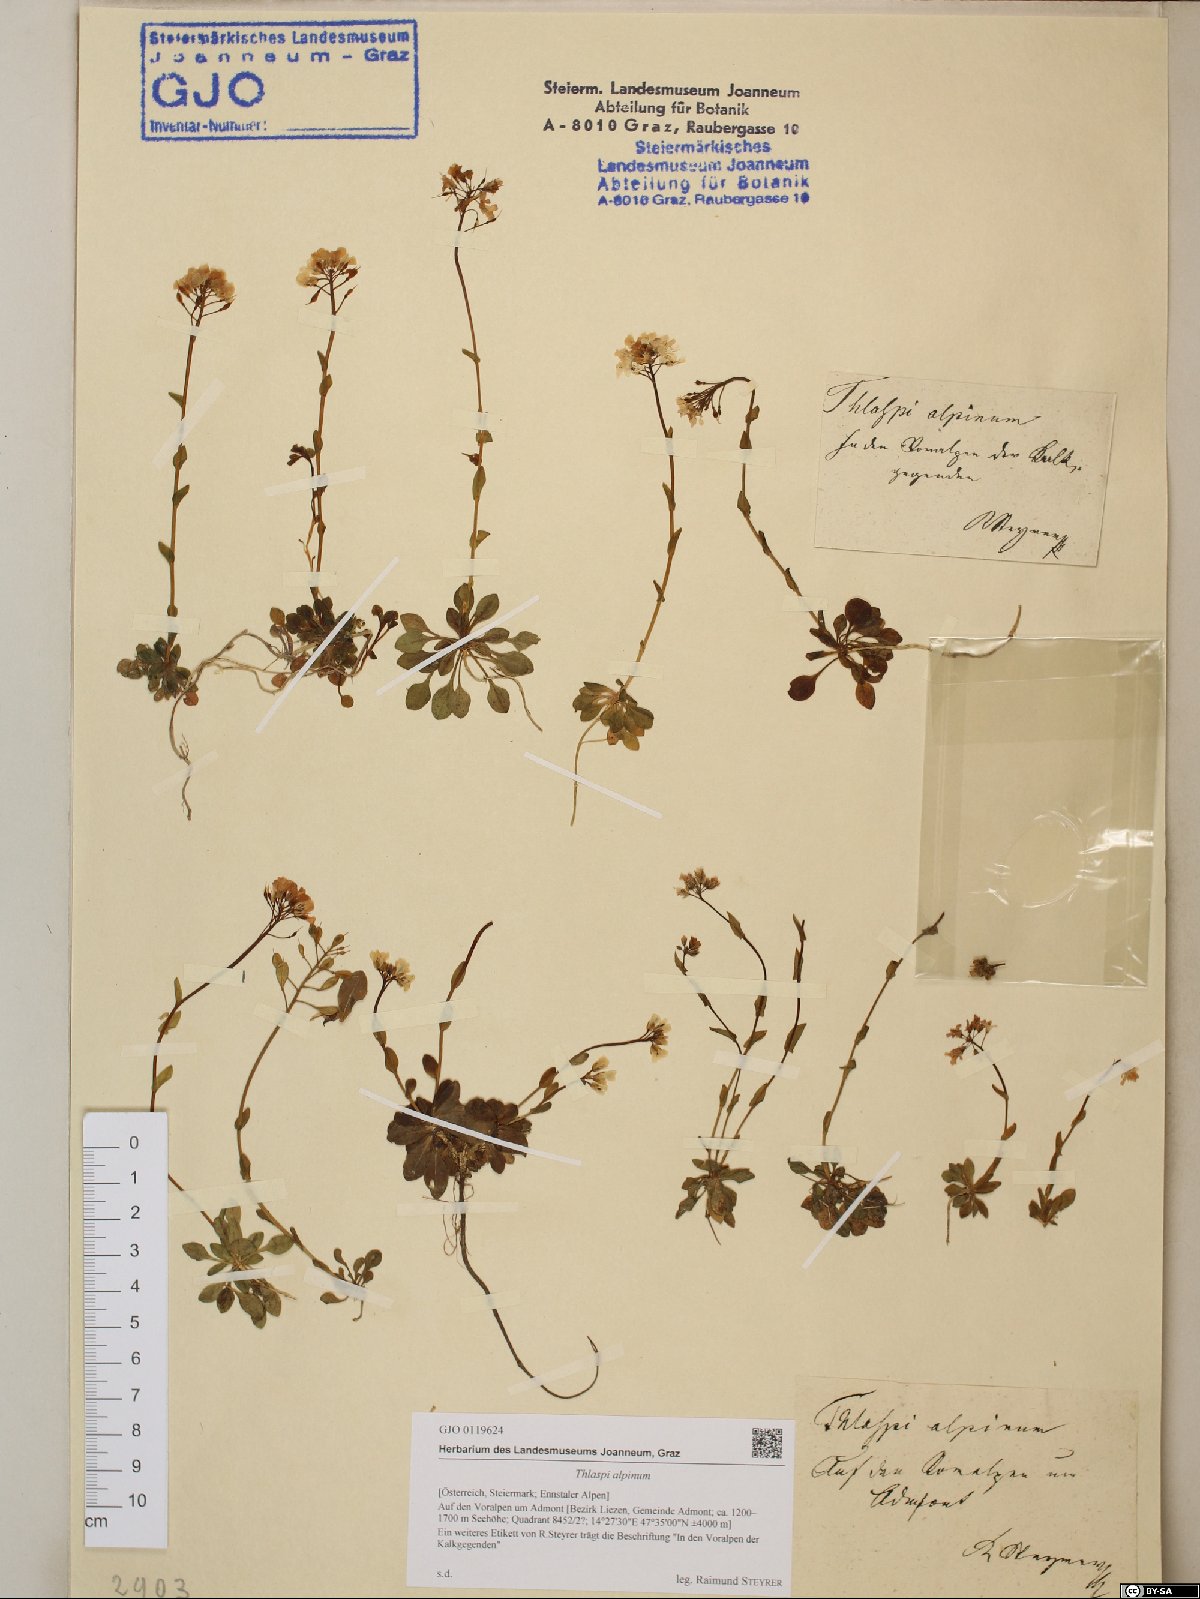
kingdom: Plantae
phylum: Tracheophyta
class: Magnoliopsida
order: Brassicales
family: Brassicaceae
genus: Noccaea
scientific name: Noccaea alpestris
